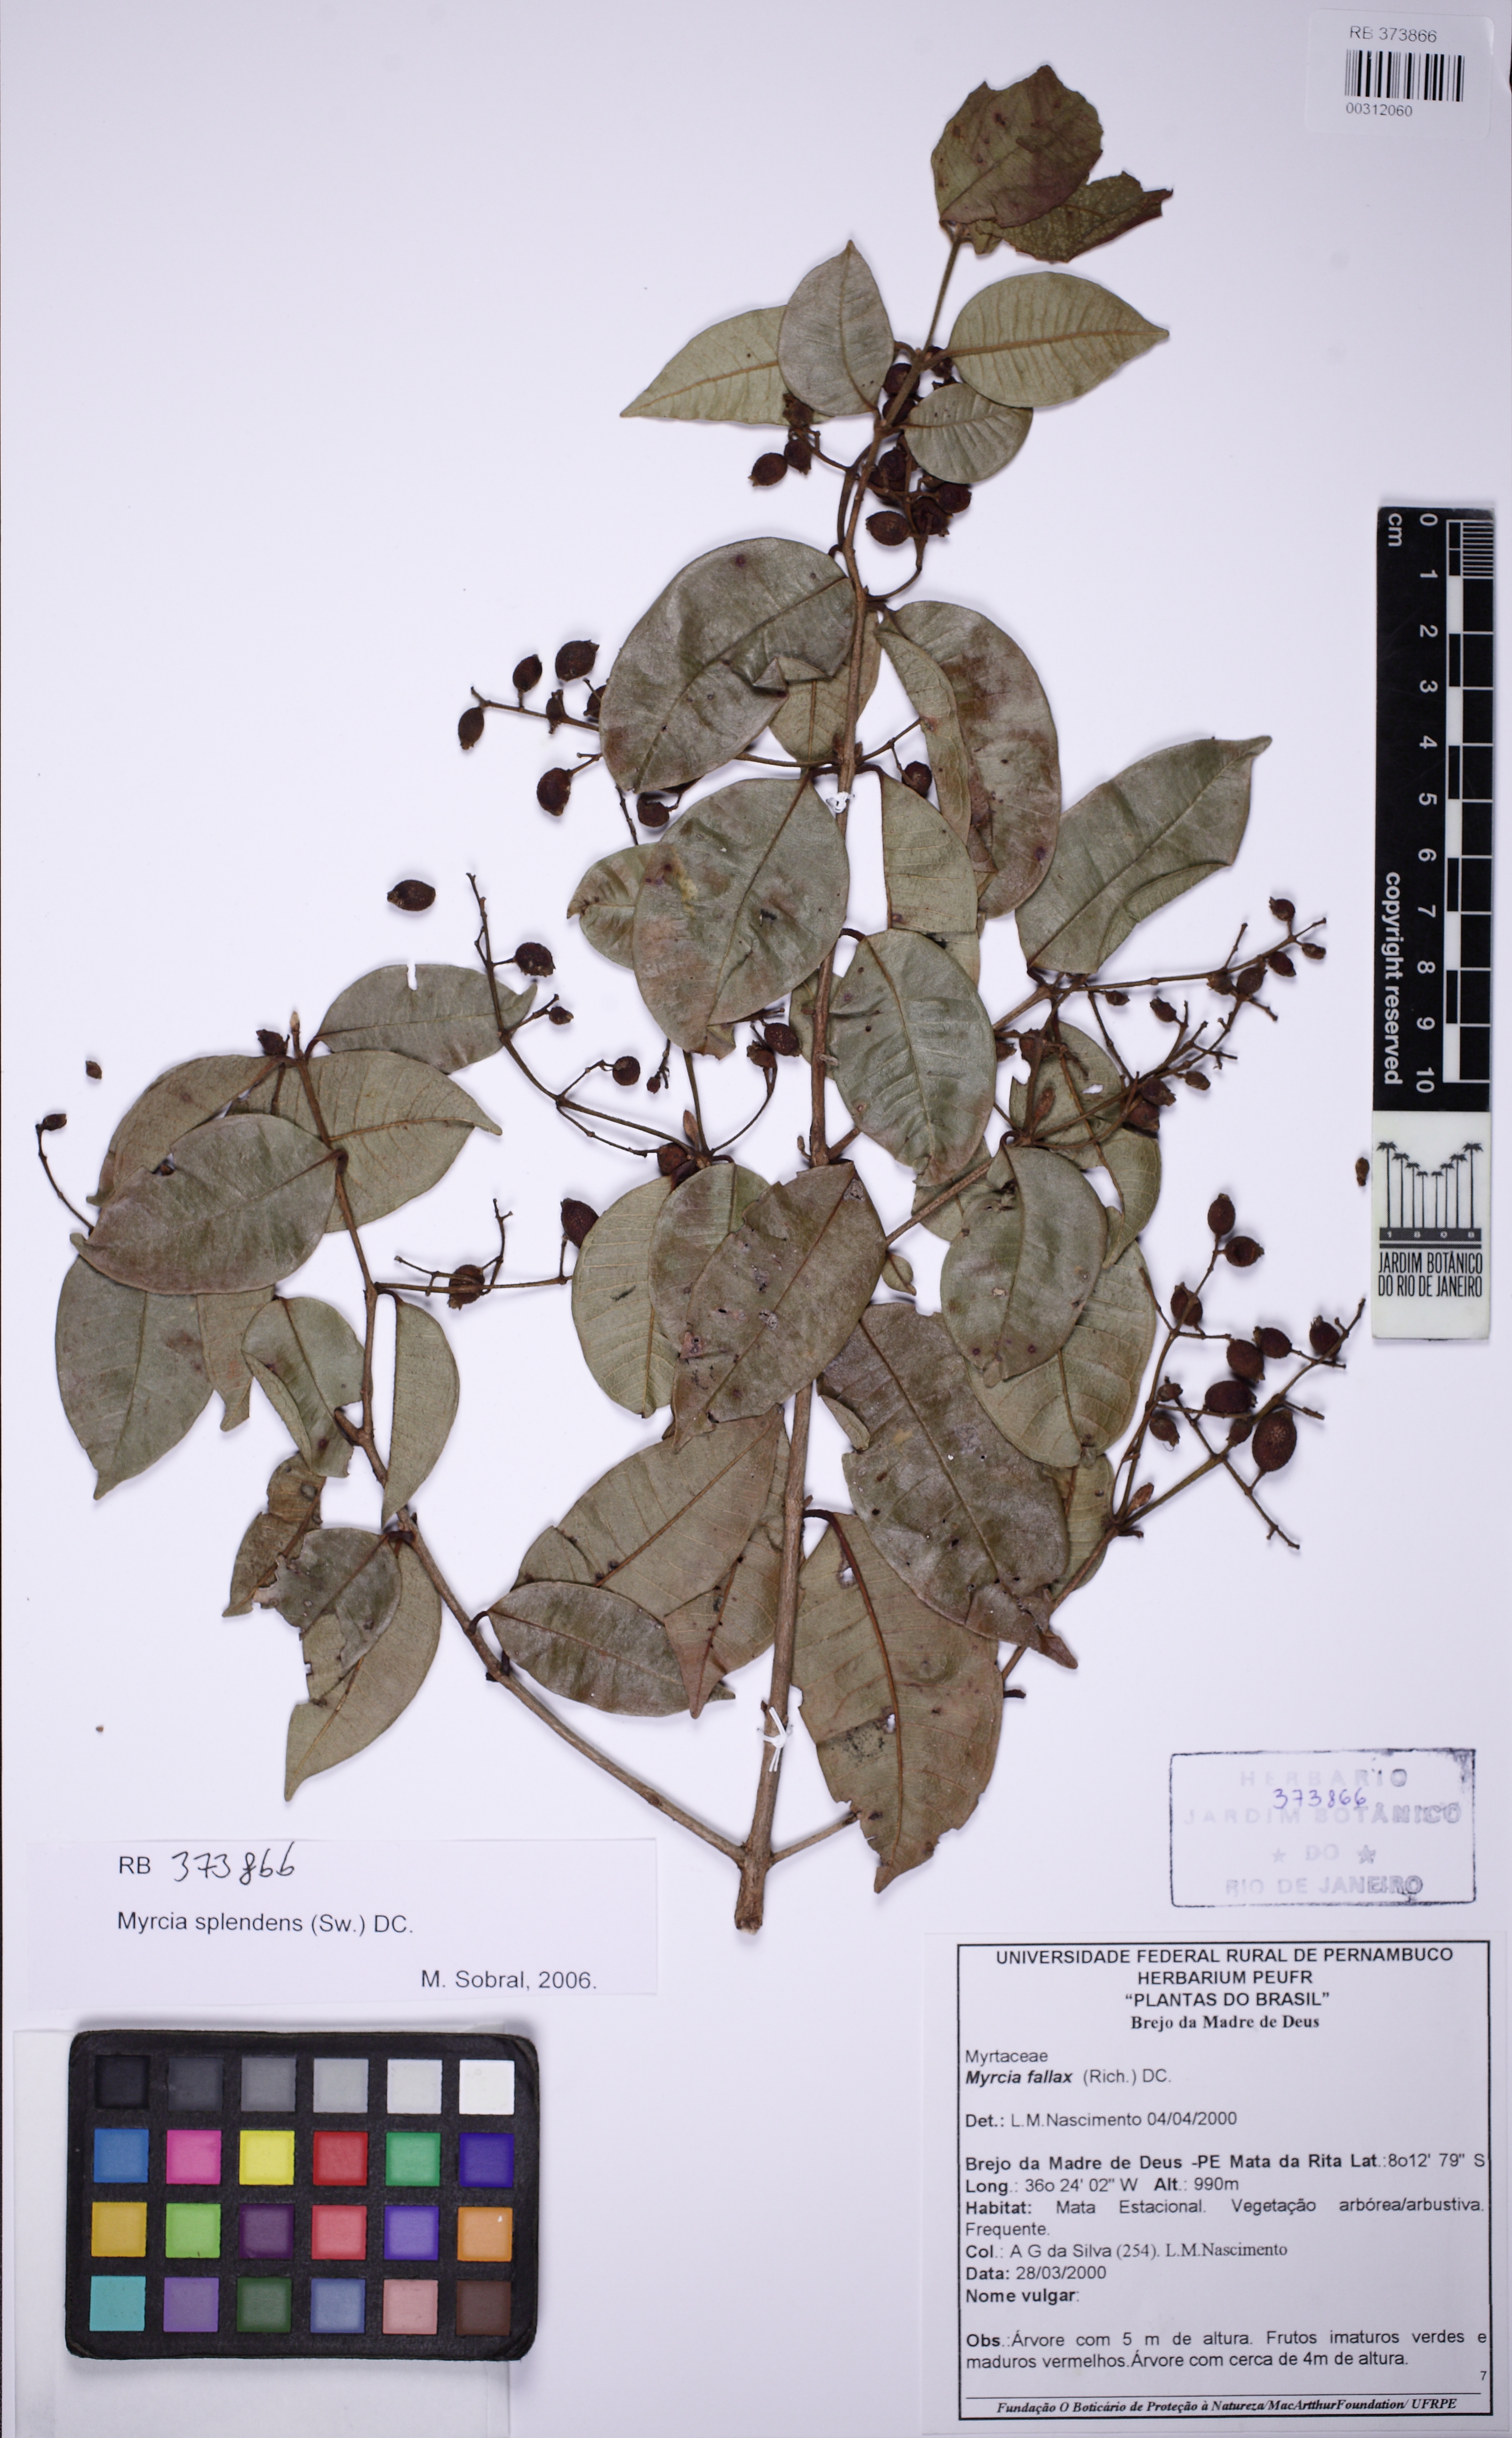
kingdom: Plantae
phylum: Tracheophyta
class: Magnoliopsida
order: Myrtales
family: Myrtaceae
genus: Myrcia
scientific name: Myrcia splendens
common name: Surinam cherry
